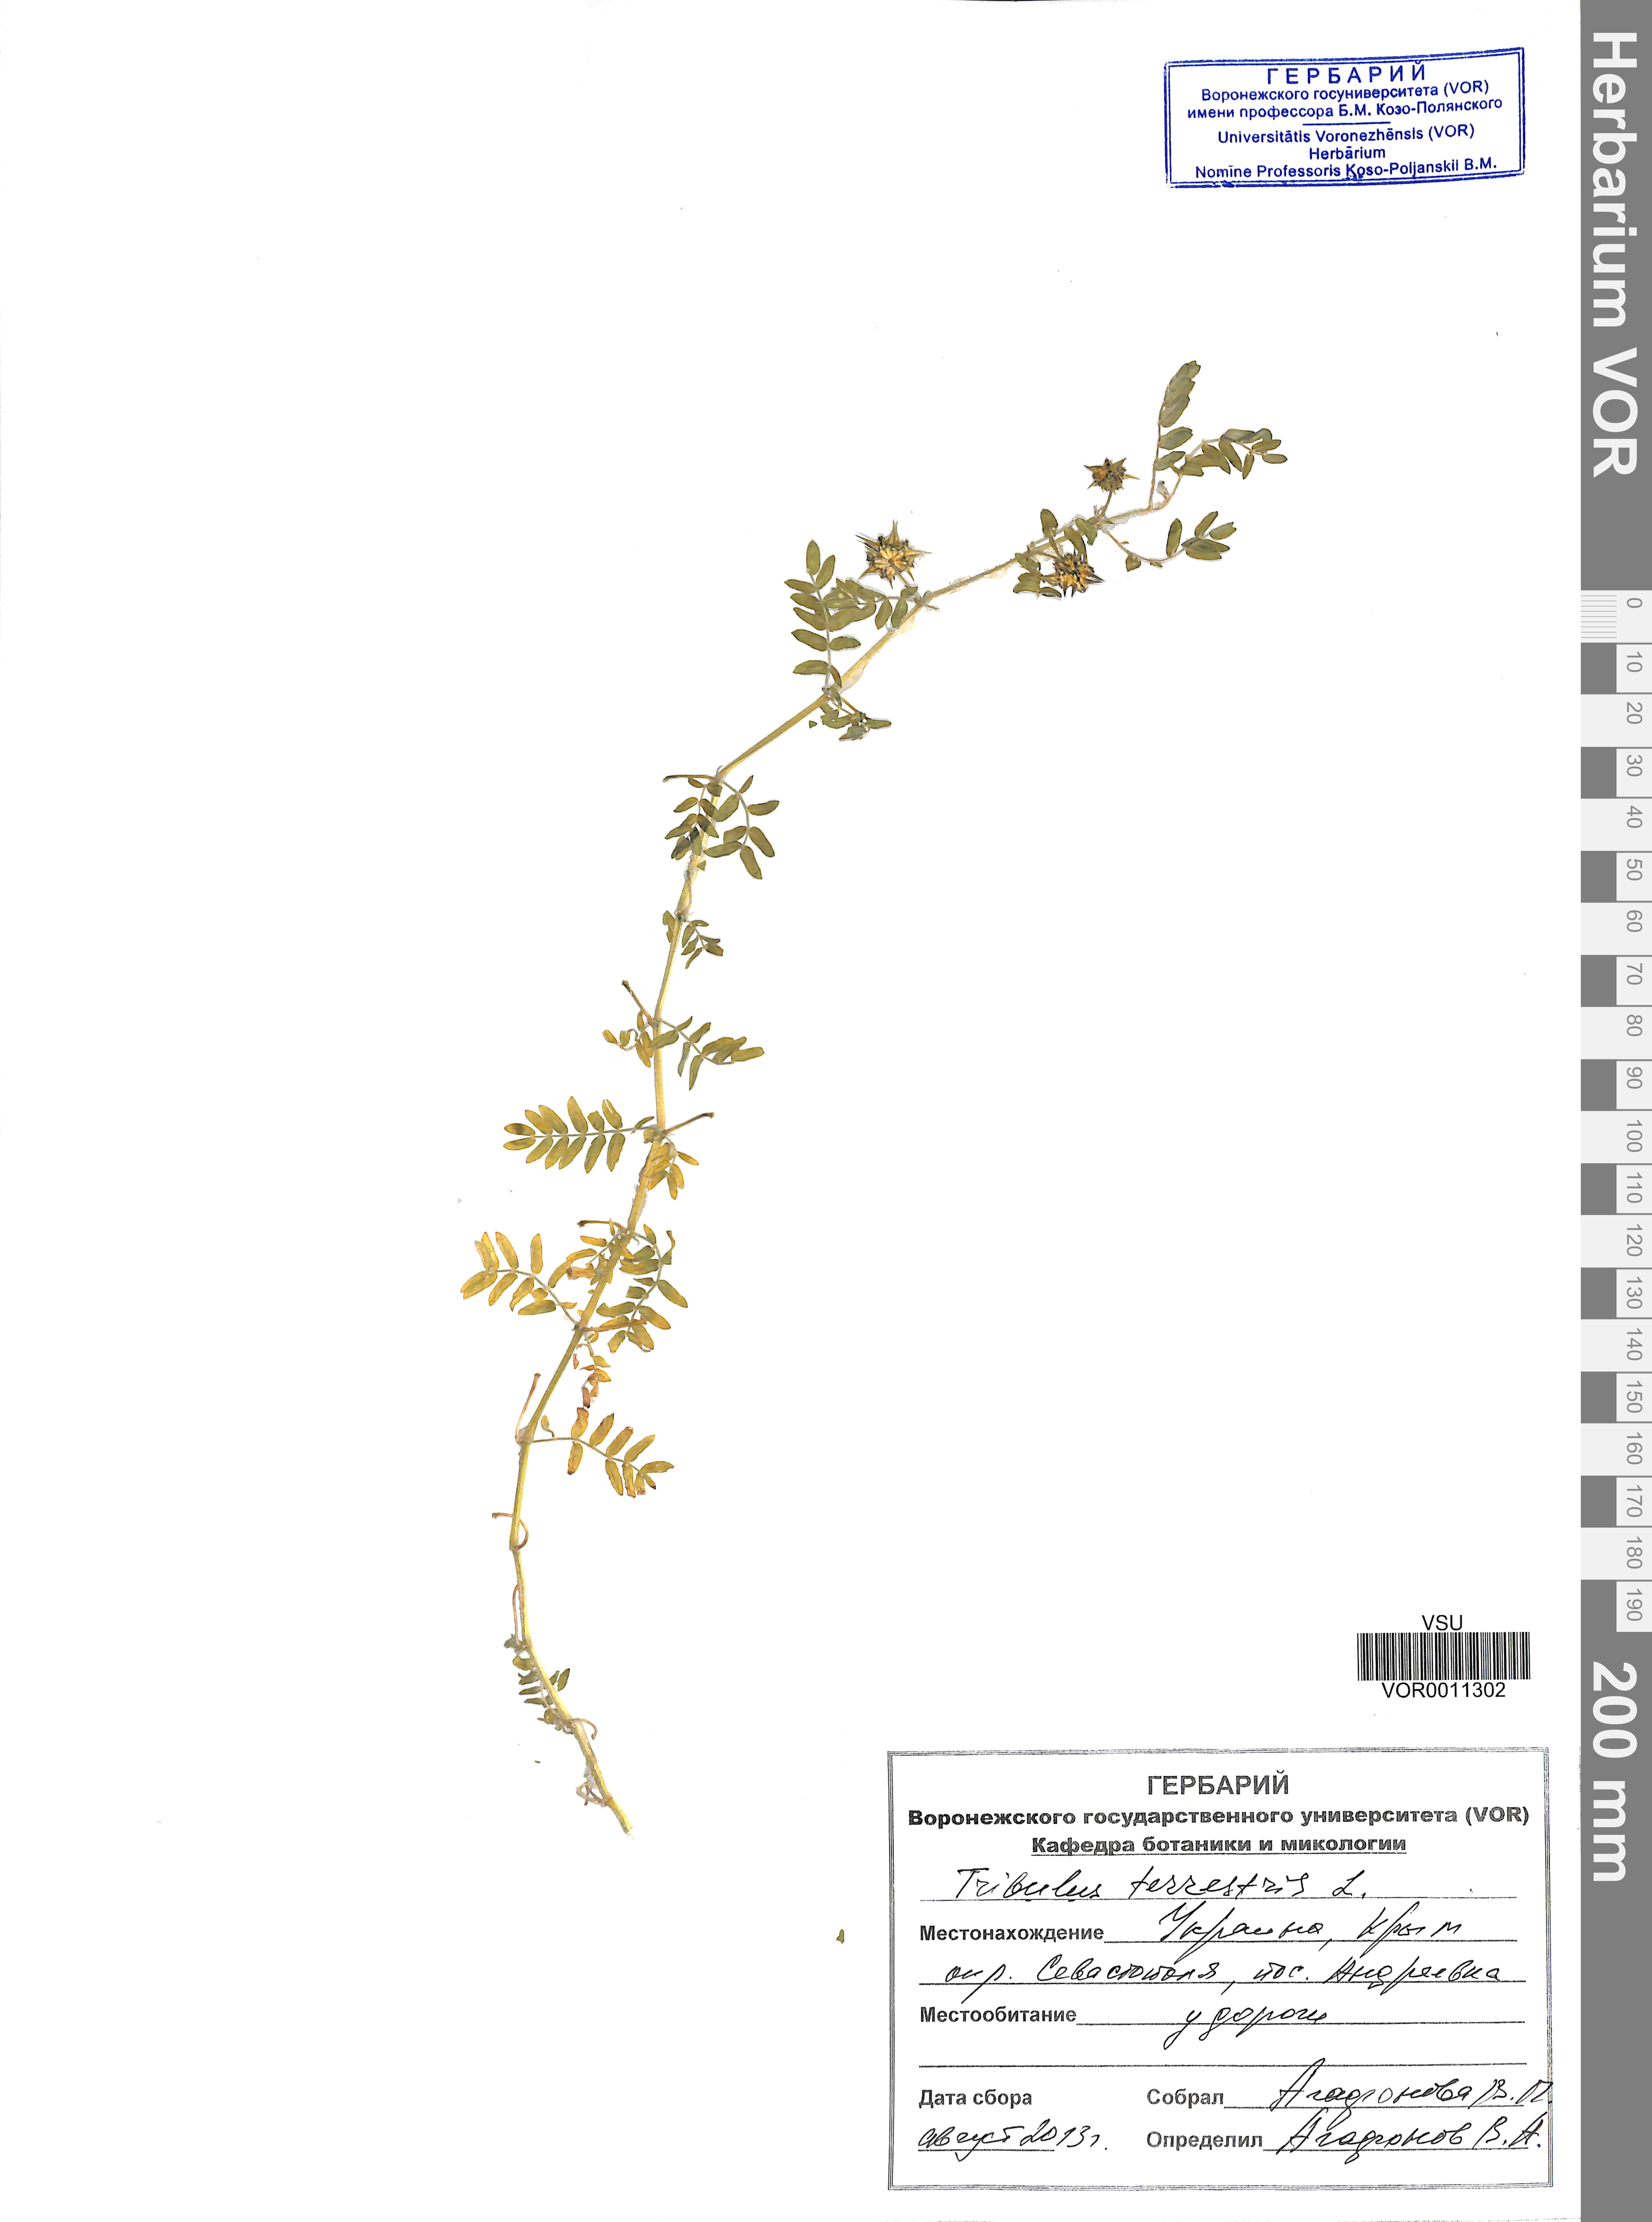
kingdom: Plantae
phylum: Tracheophyta
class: Magnoliopsida
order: Zygophyllales
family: Zygophyllaceae
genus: Tribulus
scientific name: Tribulus terrestris
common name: Puncturevine
